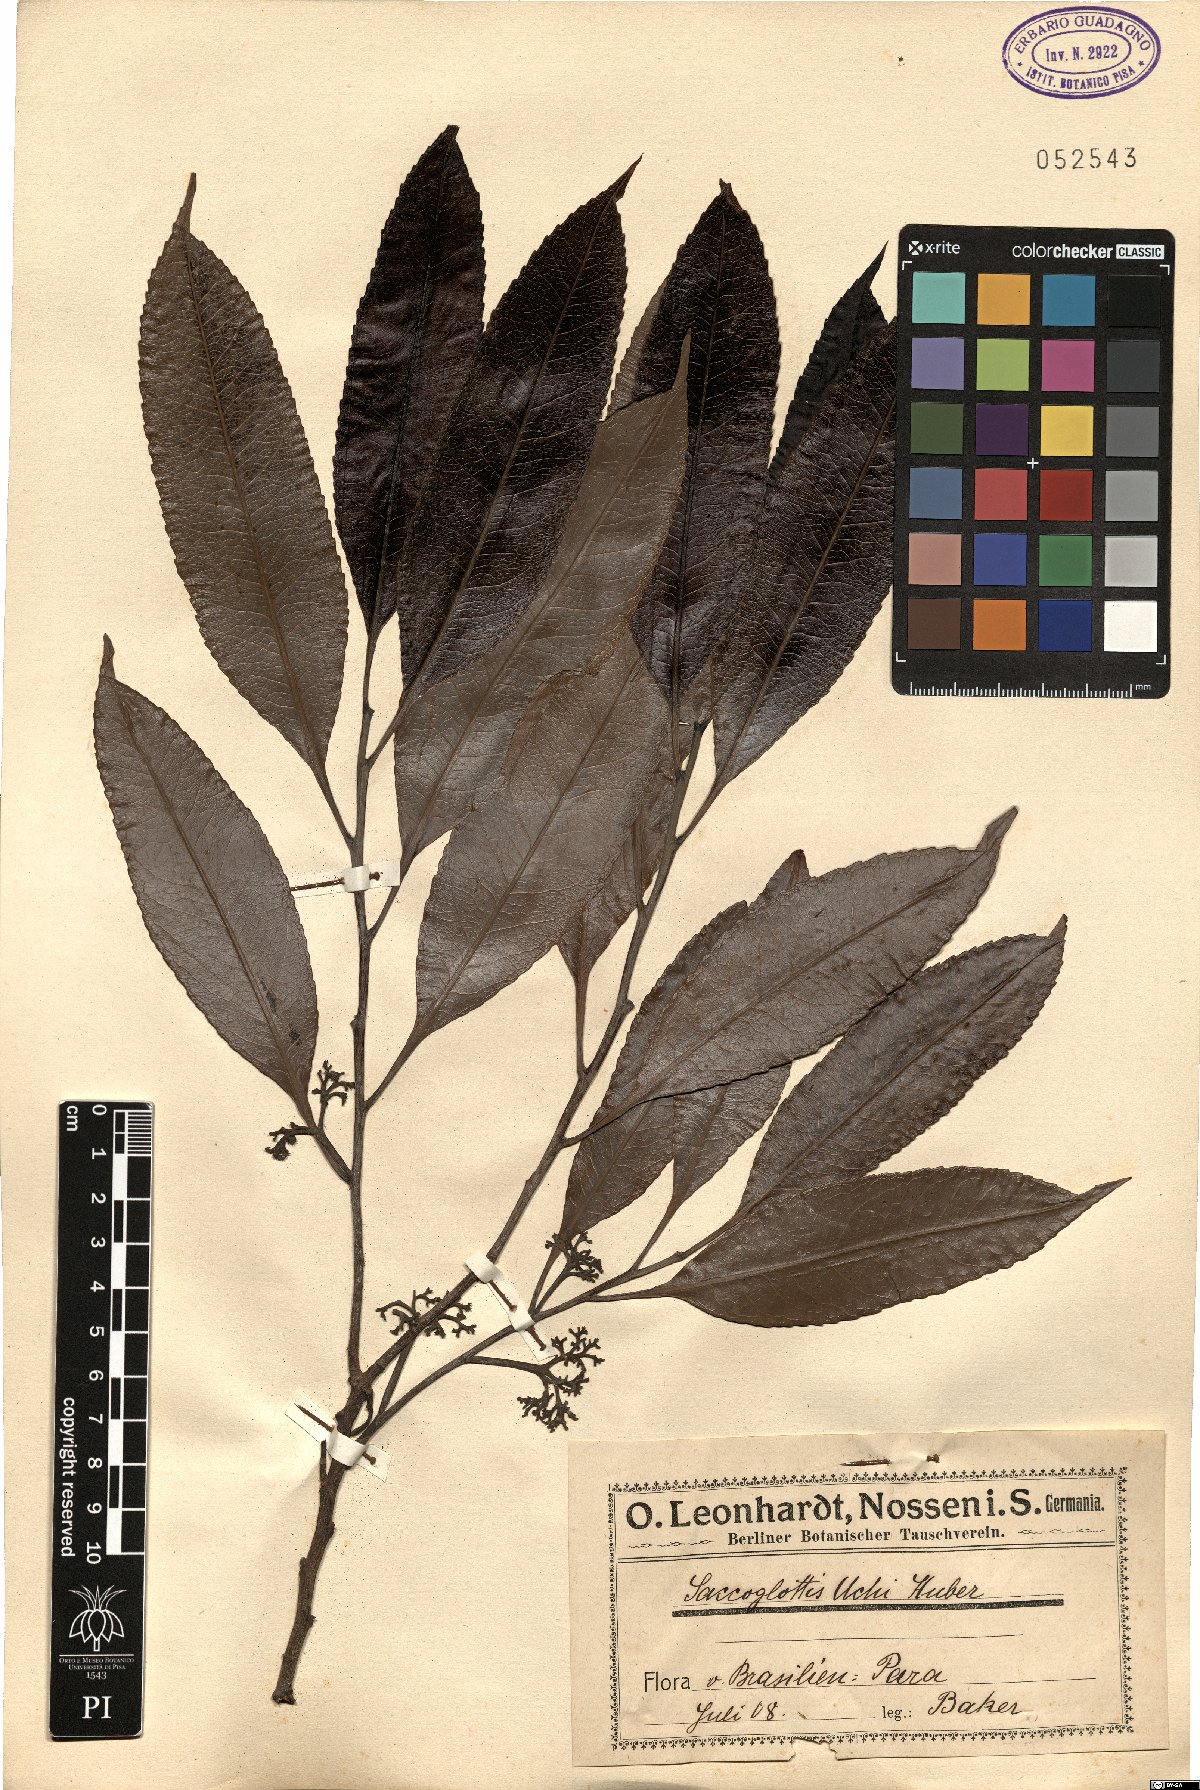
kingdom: Plantae
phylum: Tracheophyta
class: Magnoliopsida
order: Malpighiales
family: Humiriaceae
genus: Endopleura
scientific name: Endopleura uchi
